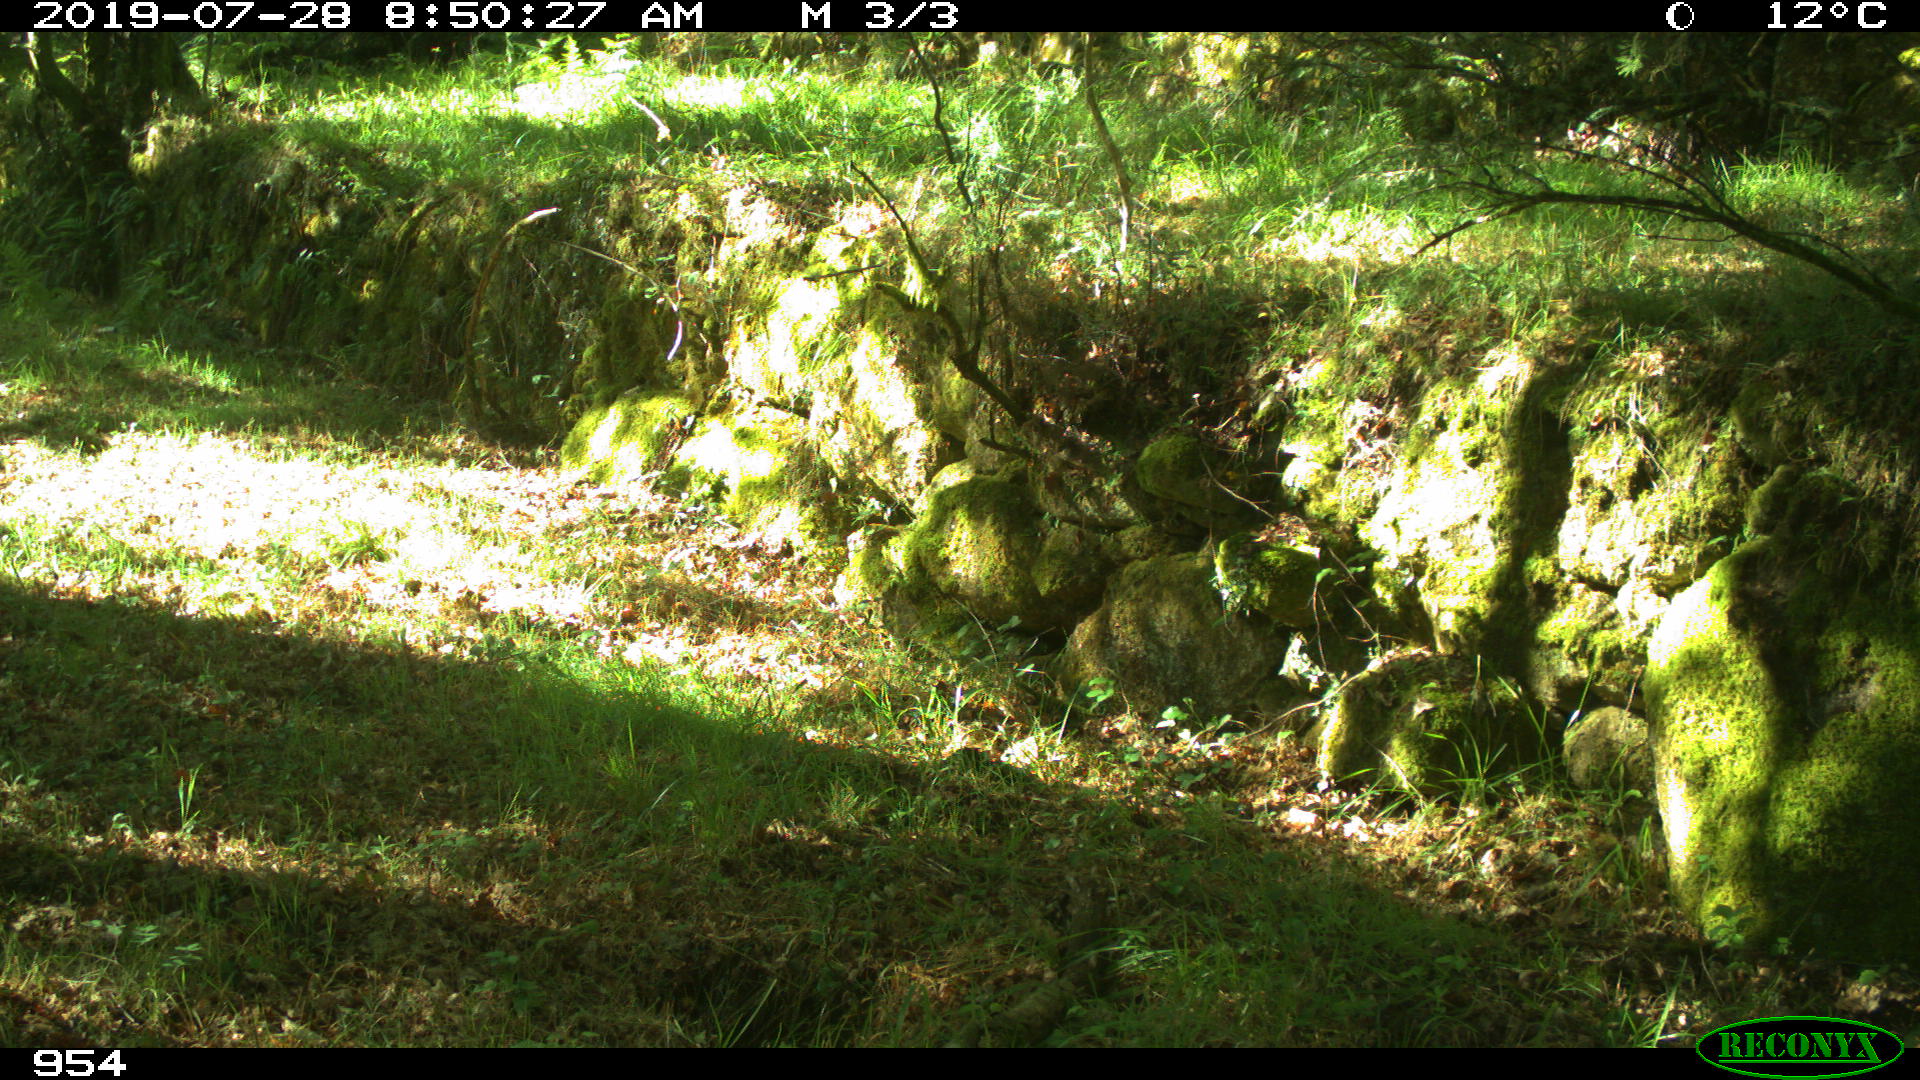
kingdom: Animalia
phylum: Chordata
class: Mammalia
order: Artiodactyla
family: Cervidae
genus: Capreolus
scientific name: Capreolus capreolus
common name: Western roe deer
